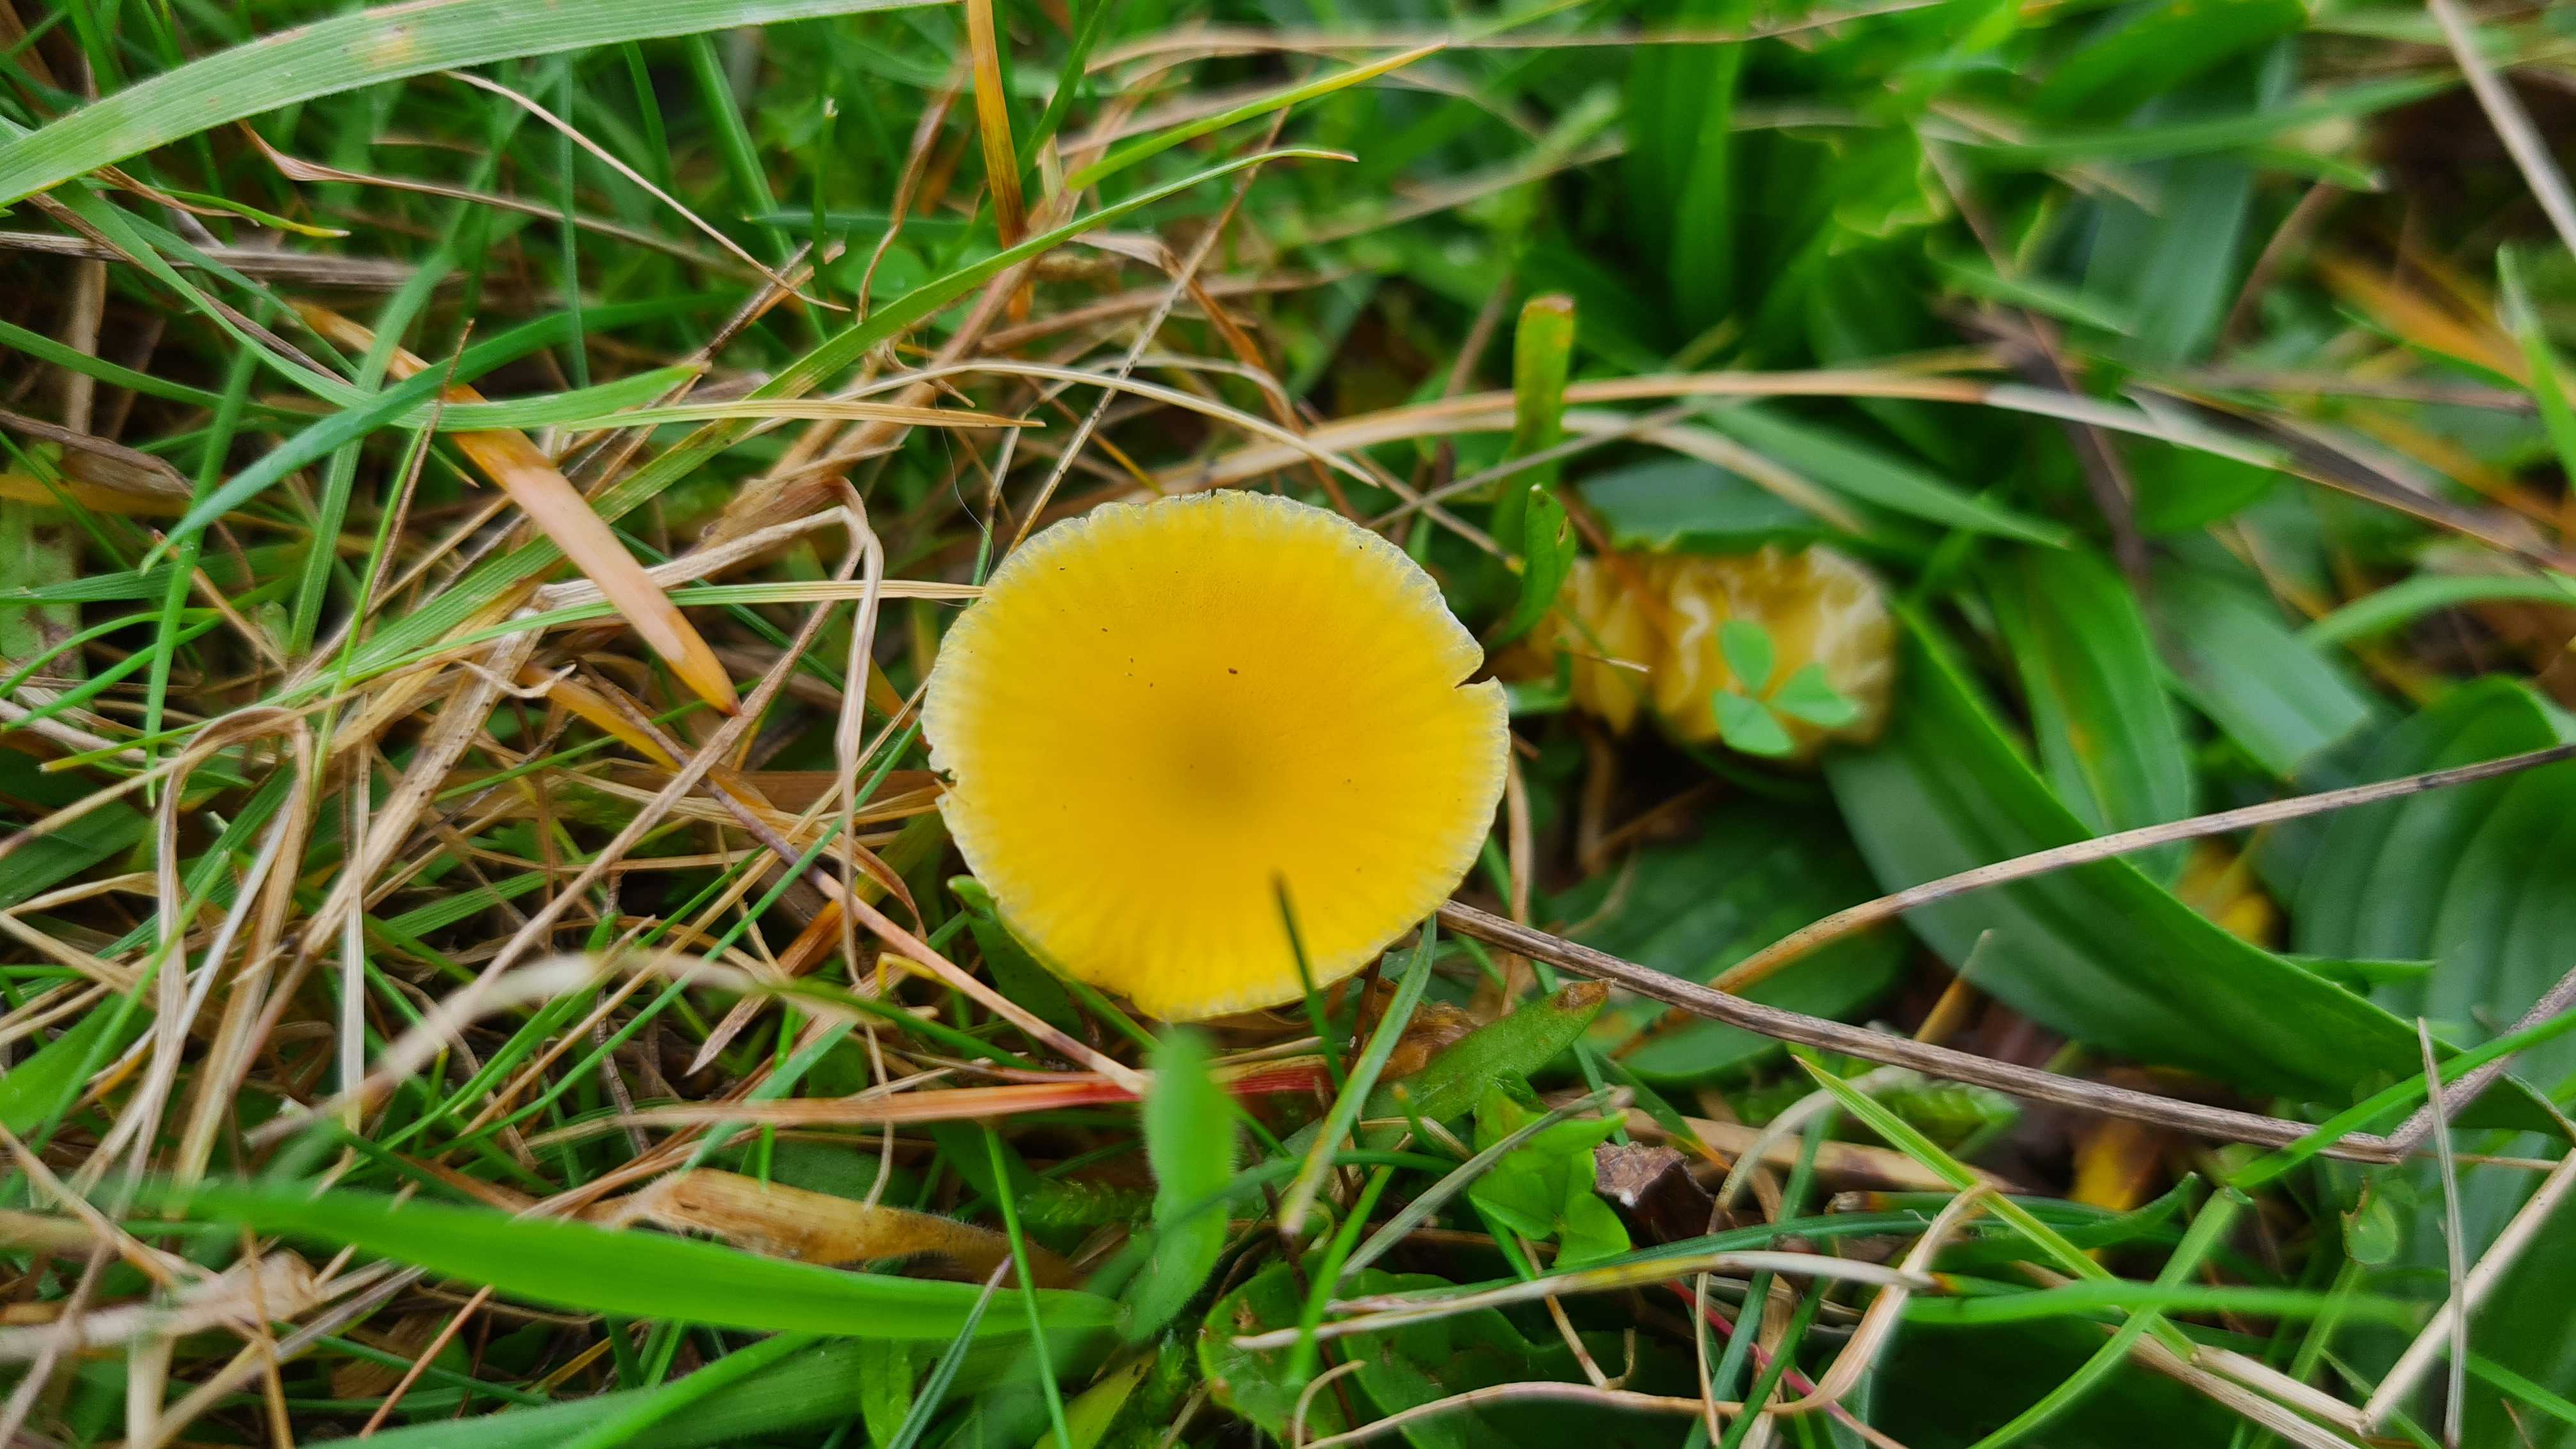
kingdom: Fungi
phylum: Basidiomycota
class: Agaricomycetes
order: Agaricales
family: Hygrophoraceae
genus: Hygrocybe
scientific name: Hygrocybe ceracea
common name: voksgul vokshat
